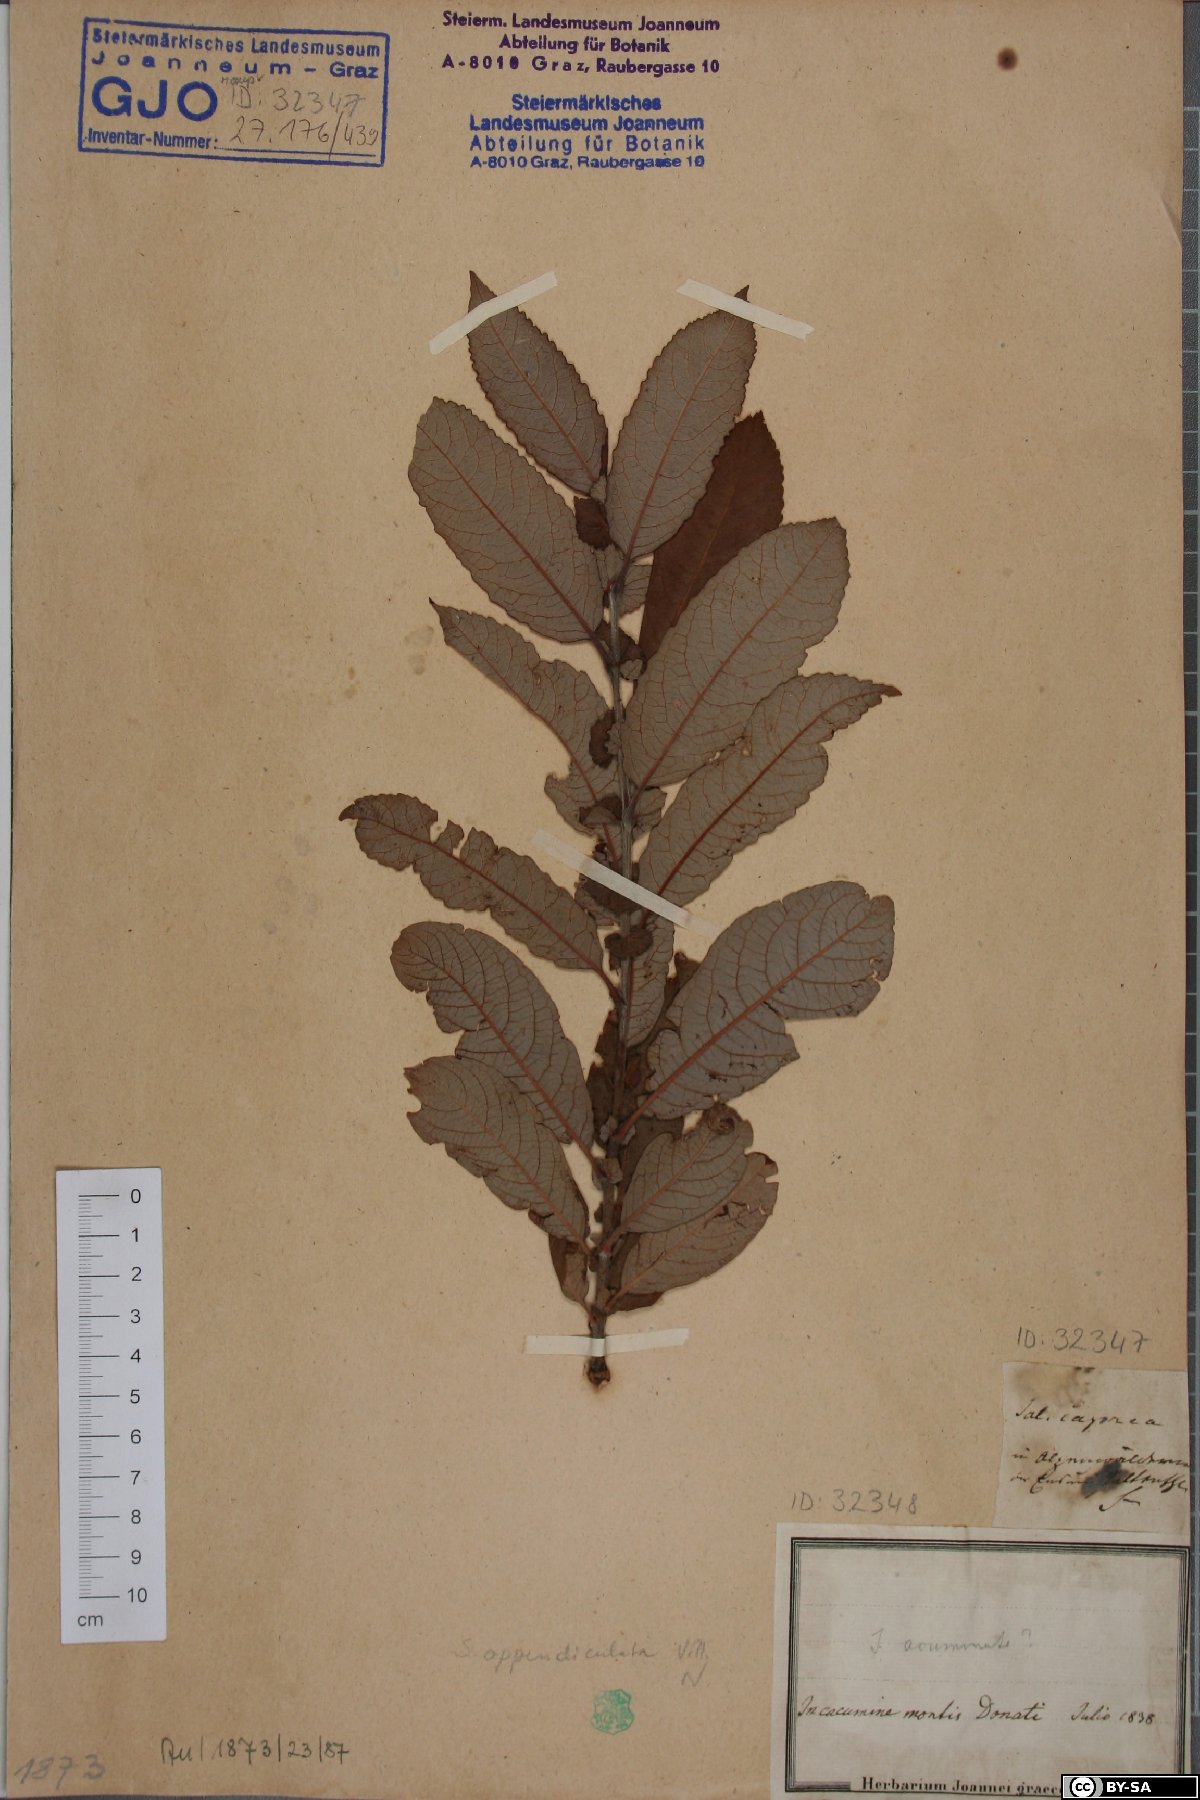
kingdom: Plantae
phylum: Tracheophyta
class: Magnoliopsida
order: Malpighiales
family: Salicaceae
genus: Salix
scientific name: Salix caprea
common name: Goat willow
